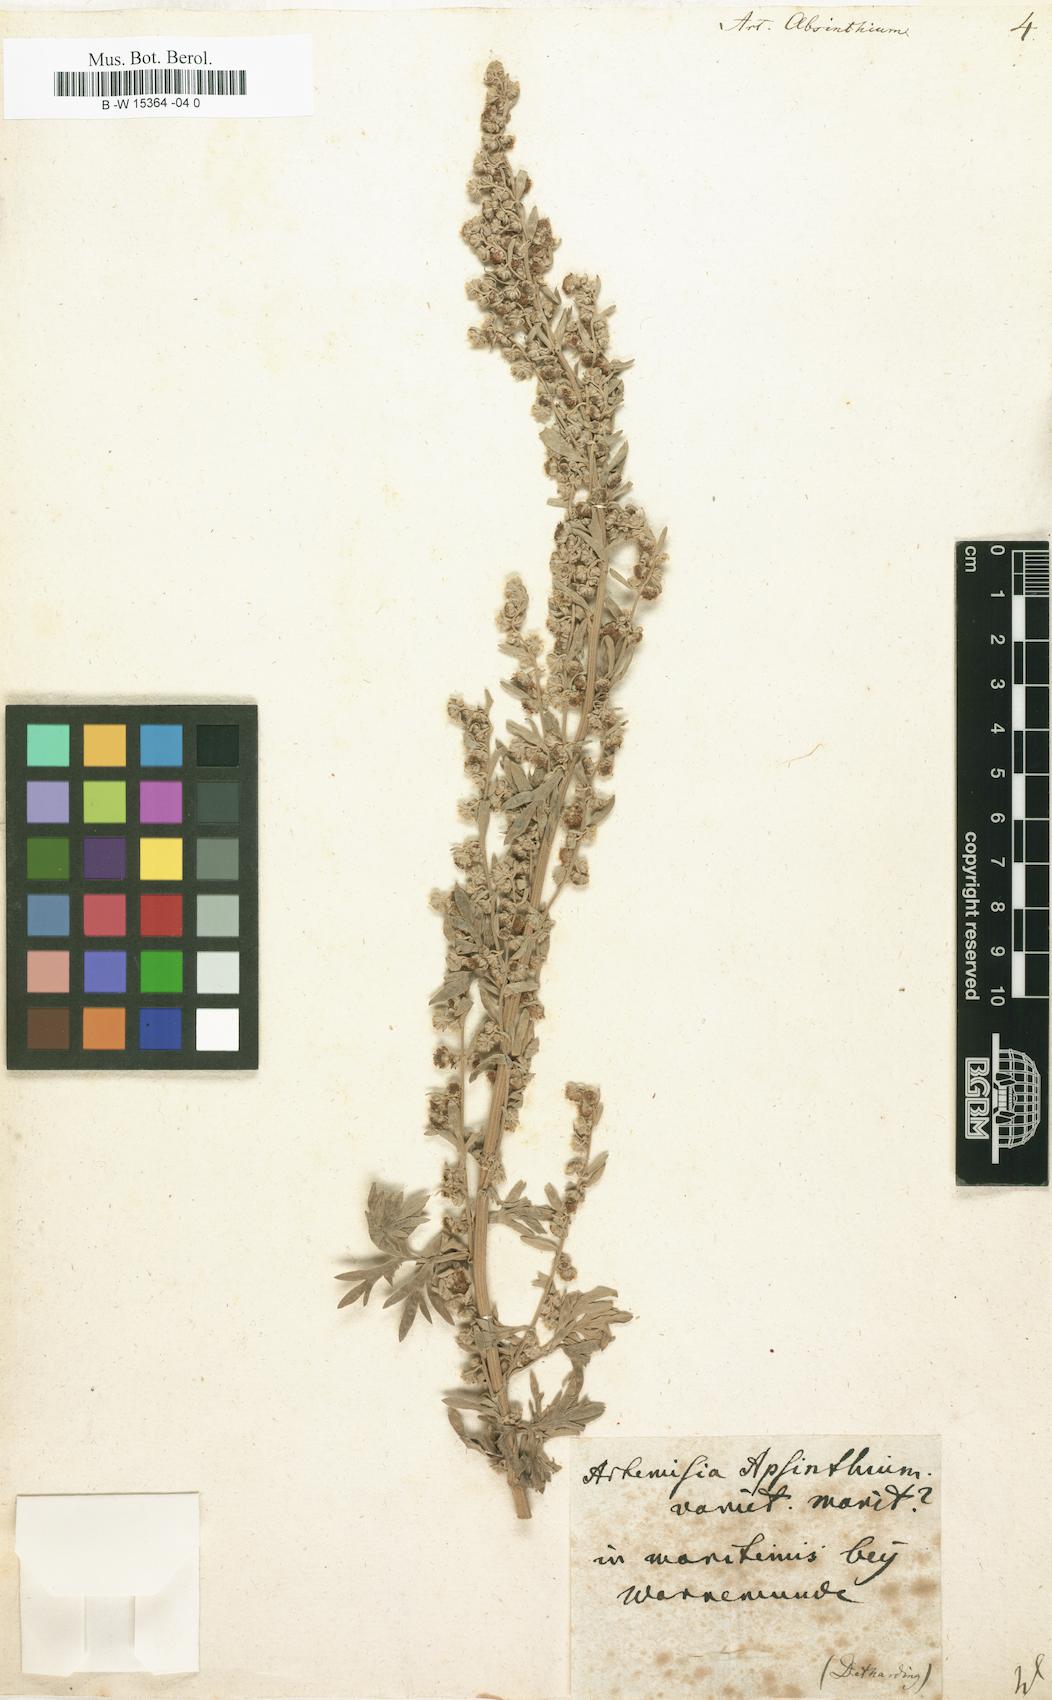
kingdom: Plantae
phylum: Tracheophyta
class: Magnoliopsida
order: Asterales
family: Asteraceae
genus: Artemisia
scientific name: Artemisia absinthium
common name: Wormwood
